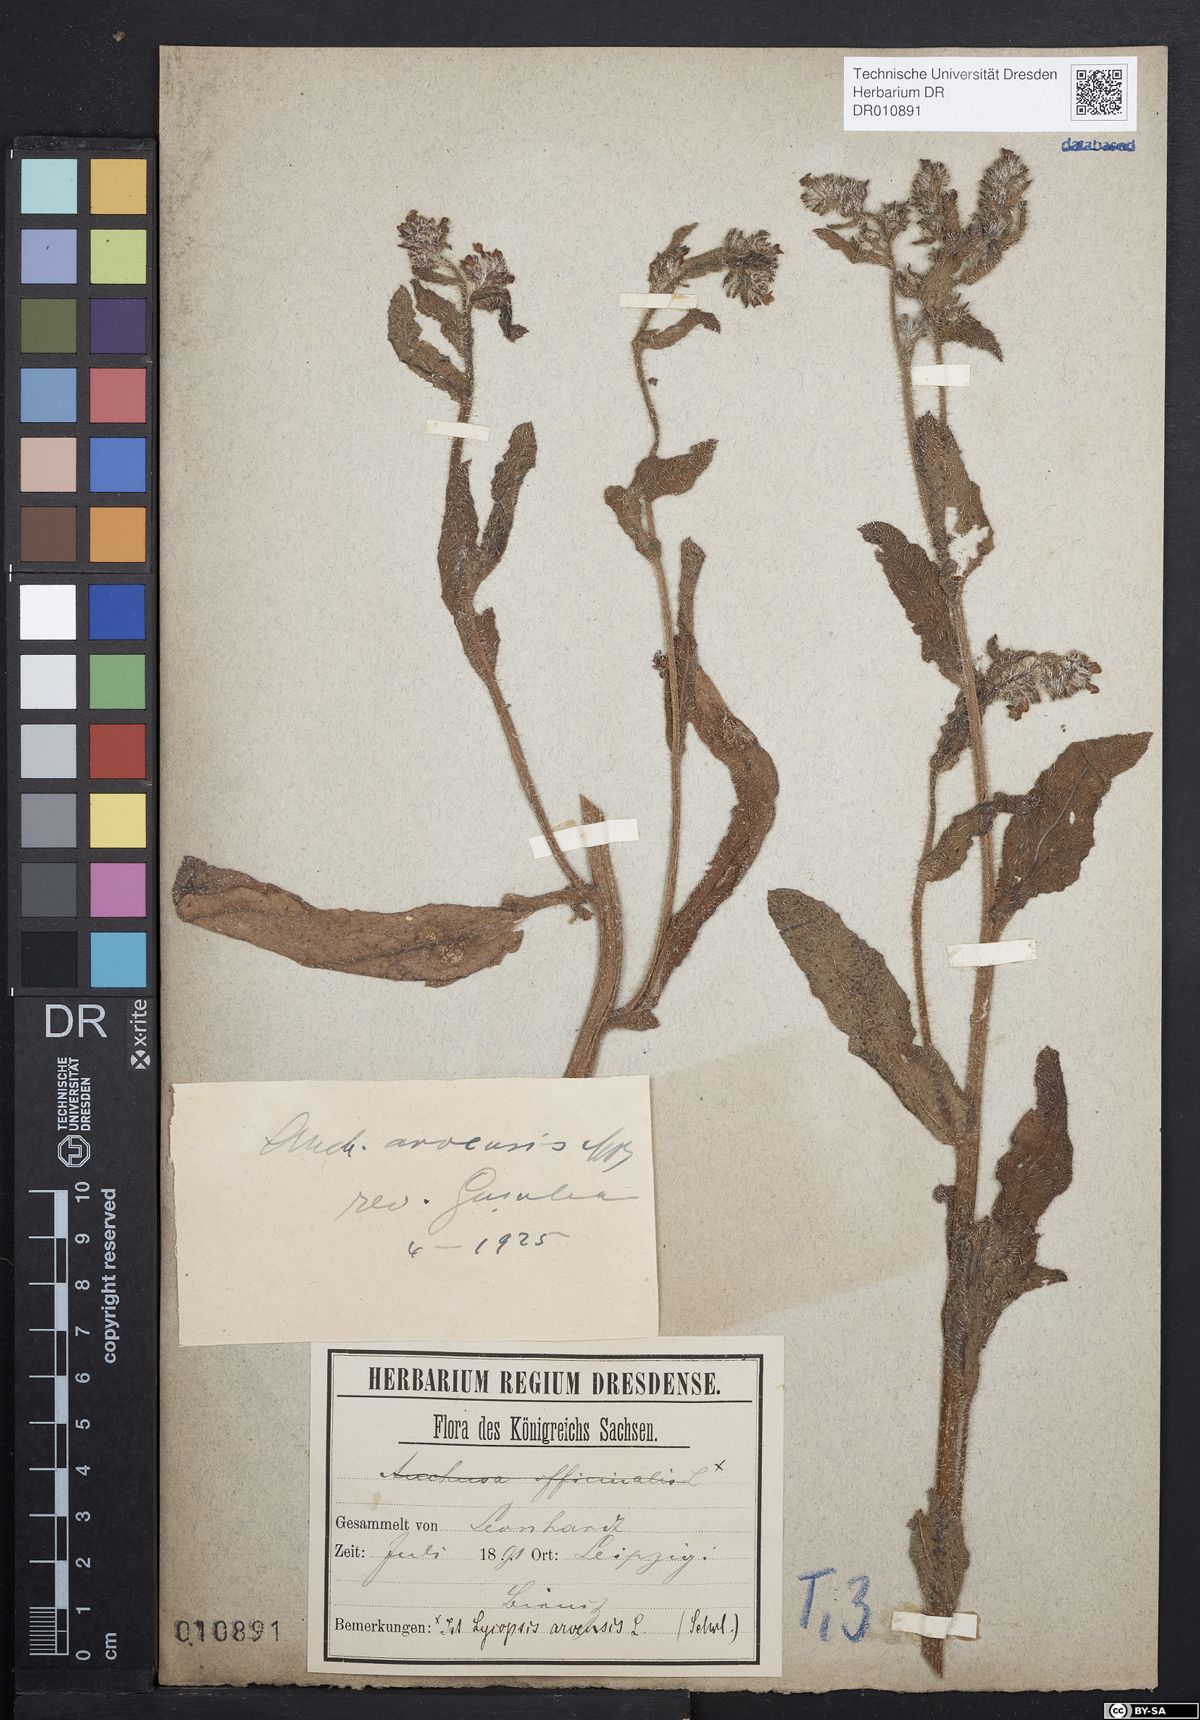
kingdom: Plantae
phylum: Tracheophyta
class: Magnoliopsida
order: Boraginales
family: Boraginaceae
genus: Lycopsis
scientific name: Lycopsis arvensis
